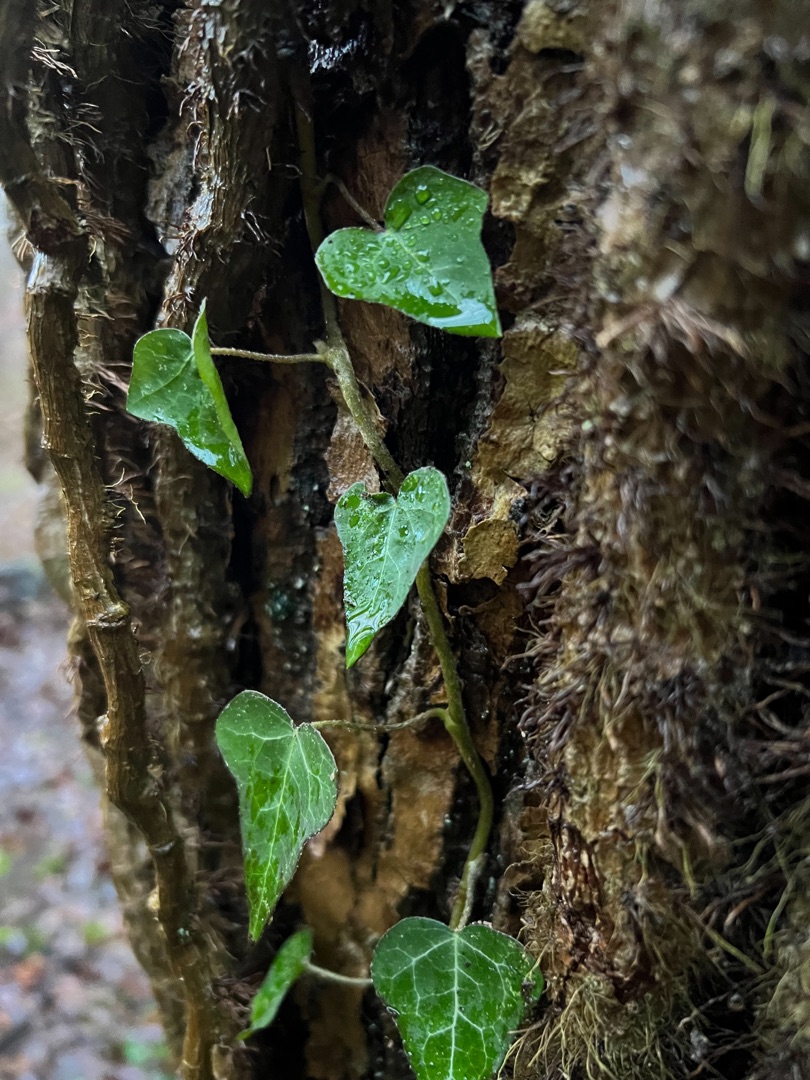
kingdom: Plantae
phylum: Tracheophyta
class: Magnoliopsida
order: Apiales
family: Araliaceae
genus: Hedera
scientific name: Hedera helix
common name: Vedbend
